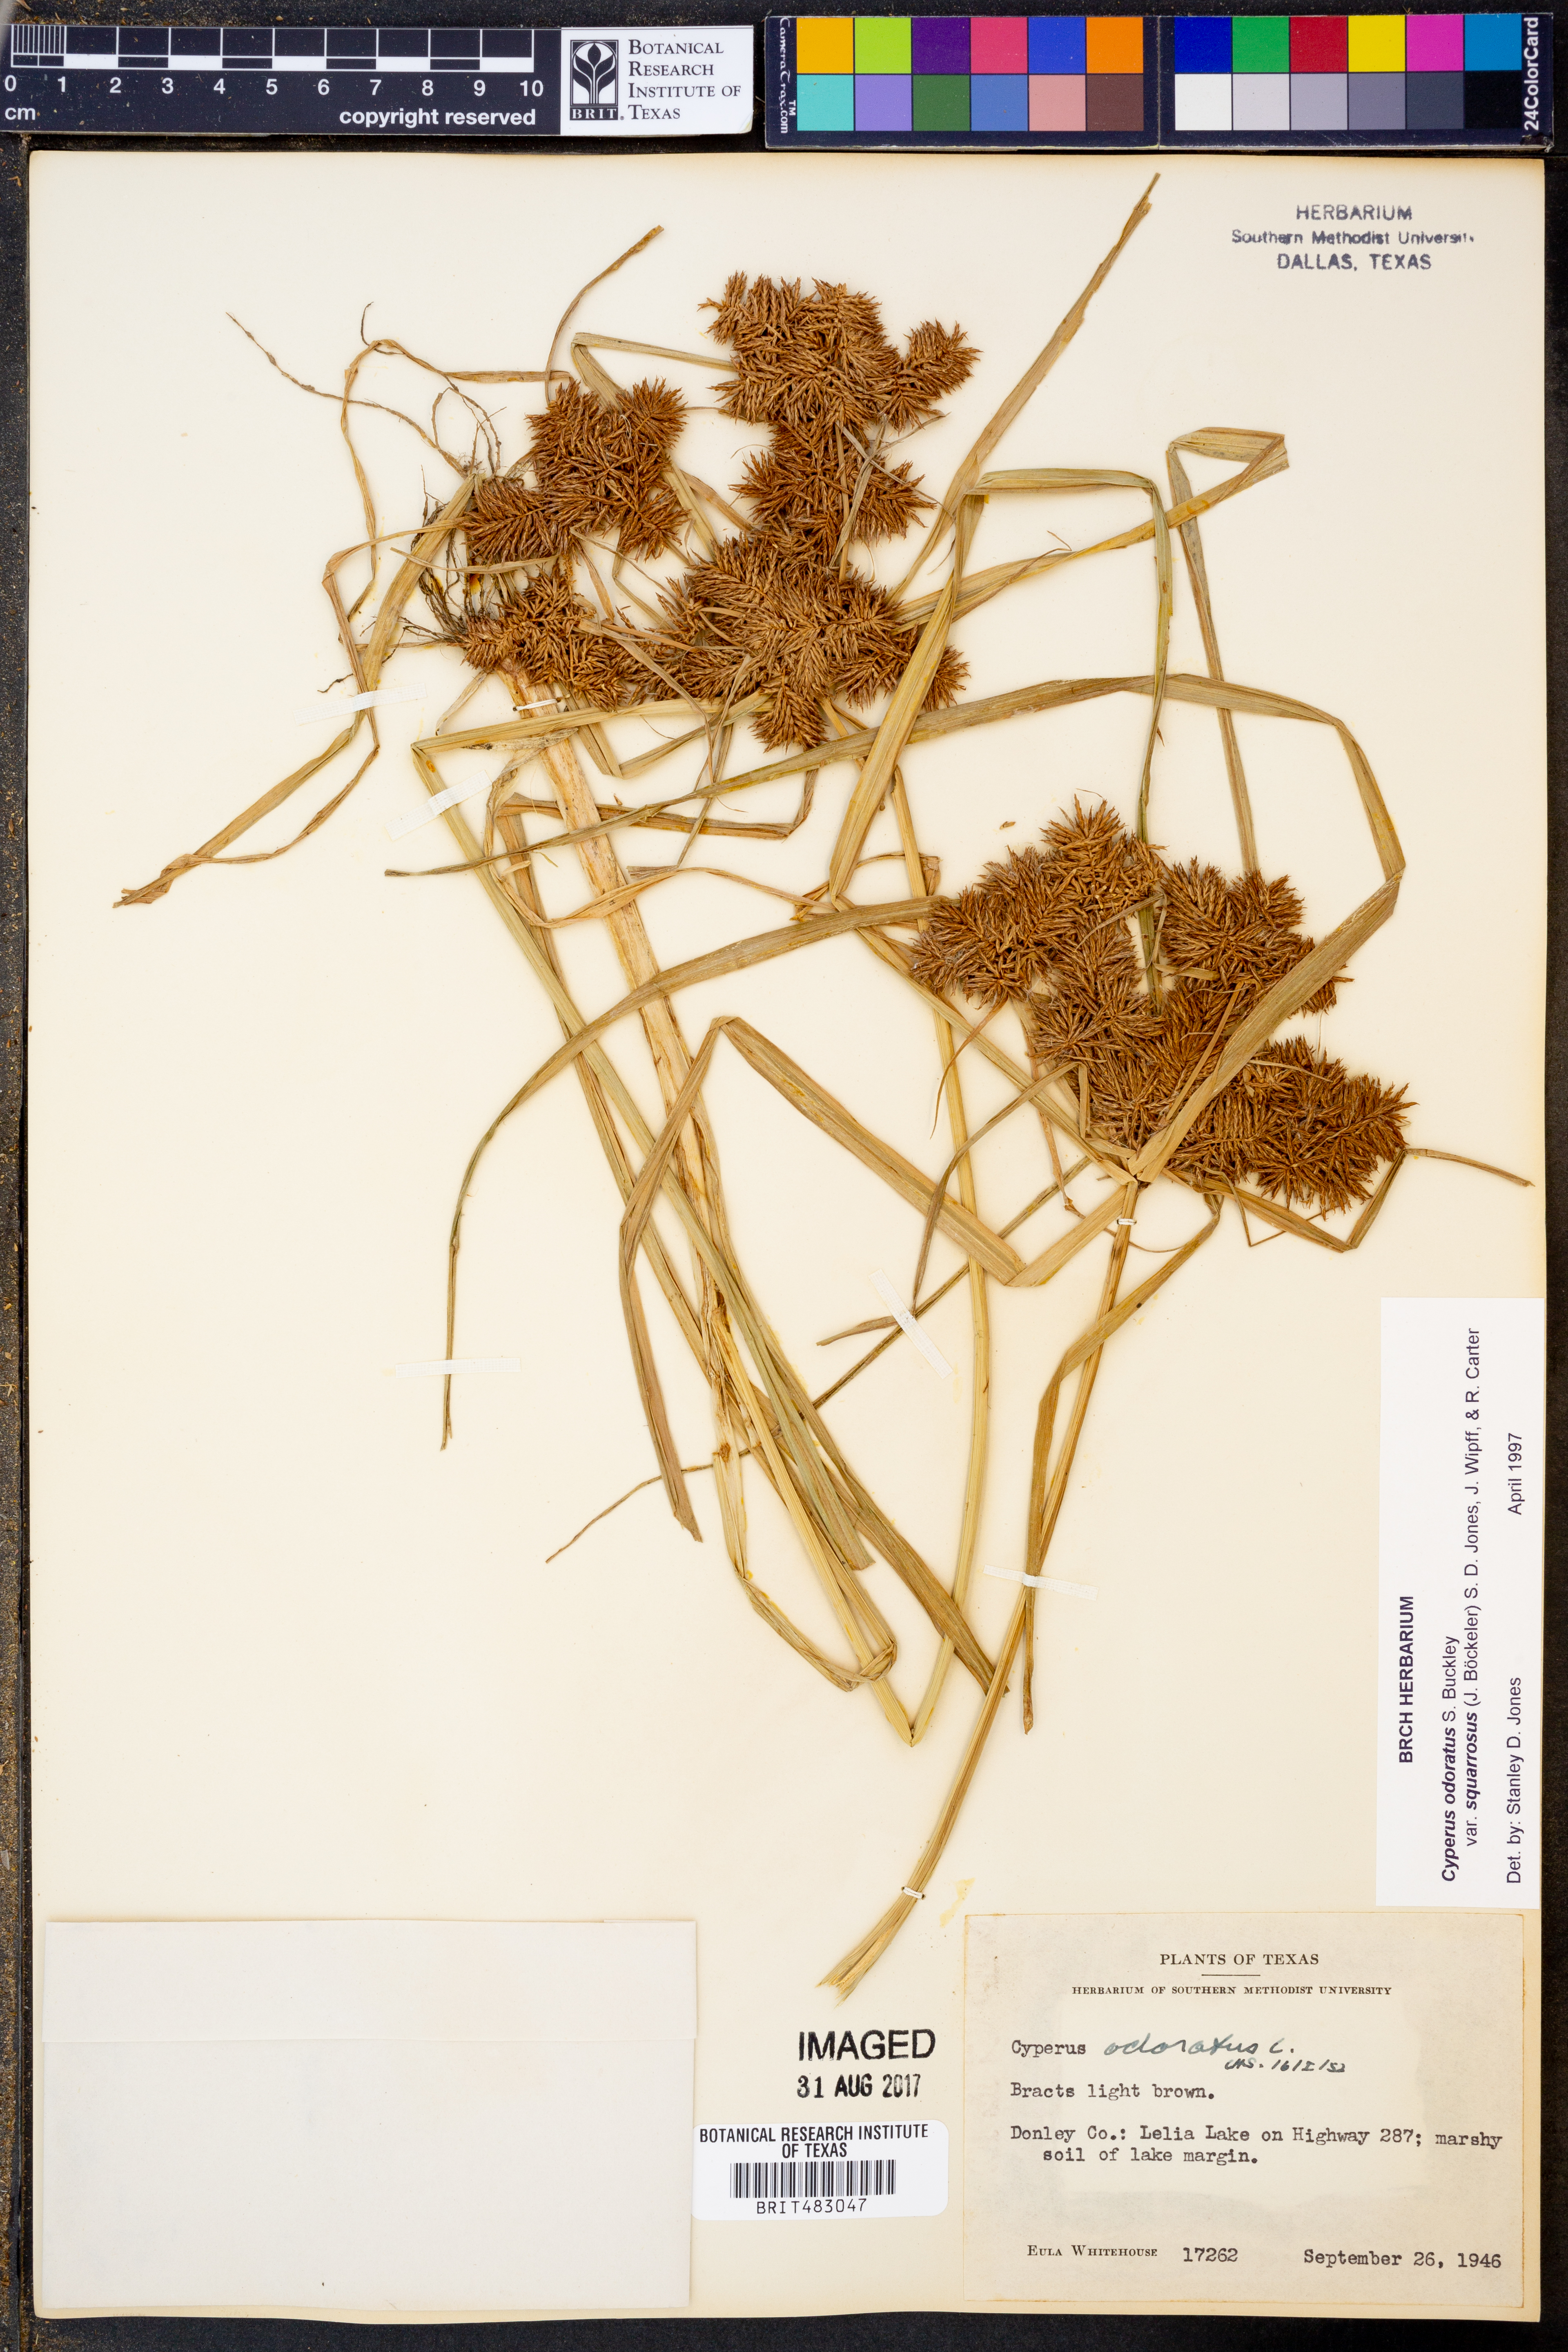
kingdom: Plantae
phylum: Tracheophyta
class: Liliopsida
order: Poales
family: Cyperaceae
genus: Cyperus
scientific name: Cyperus odoratus
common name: Fragrant flatsedge
